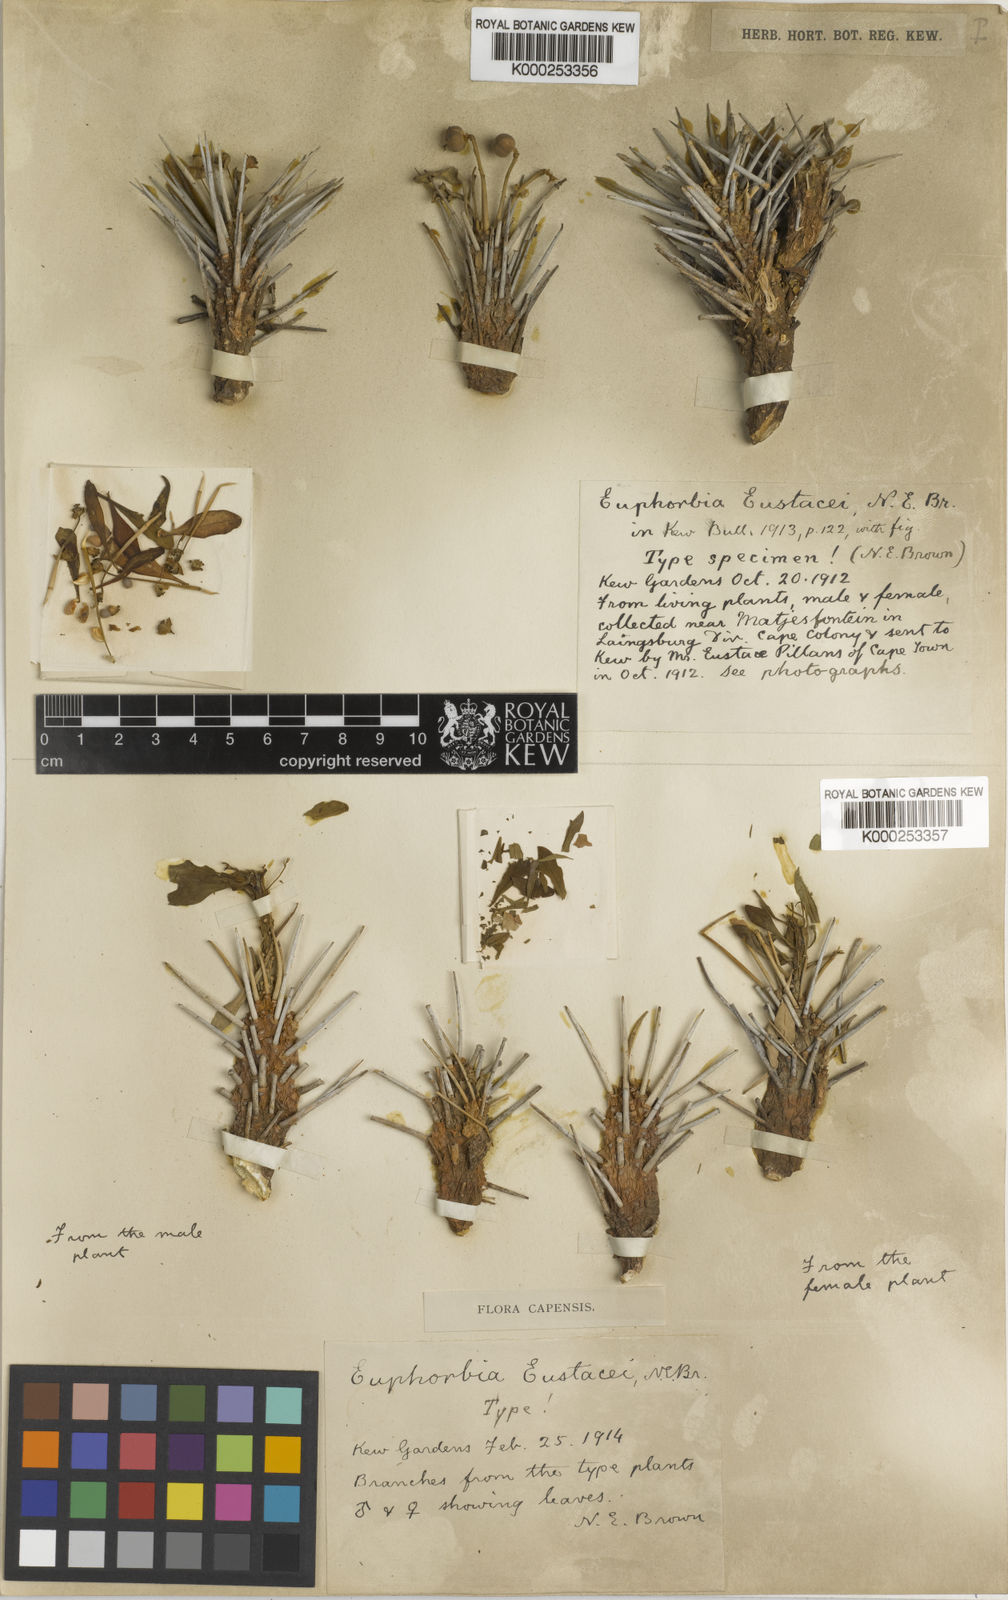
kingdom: Plantae
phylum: Tracheophyta
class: Magnoliopsida
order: Malpighiales
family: Euphorbiaceae
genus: Euphorbia
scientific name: Euphorbia eustacei
